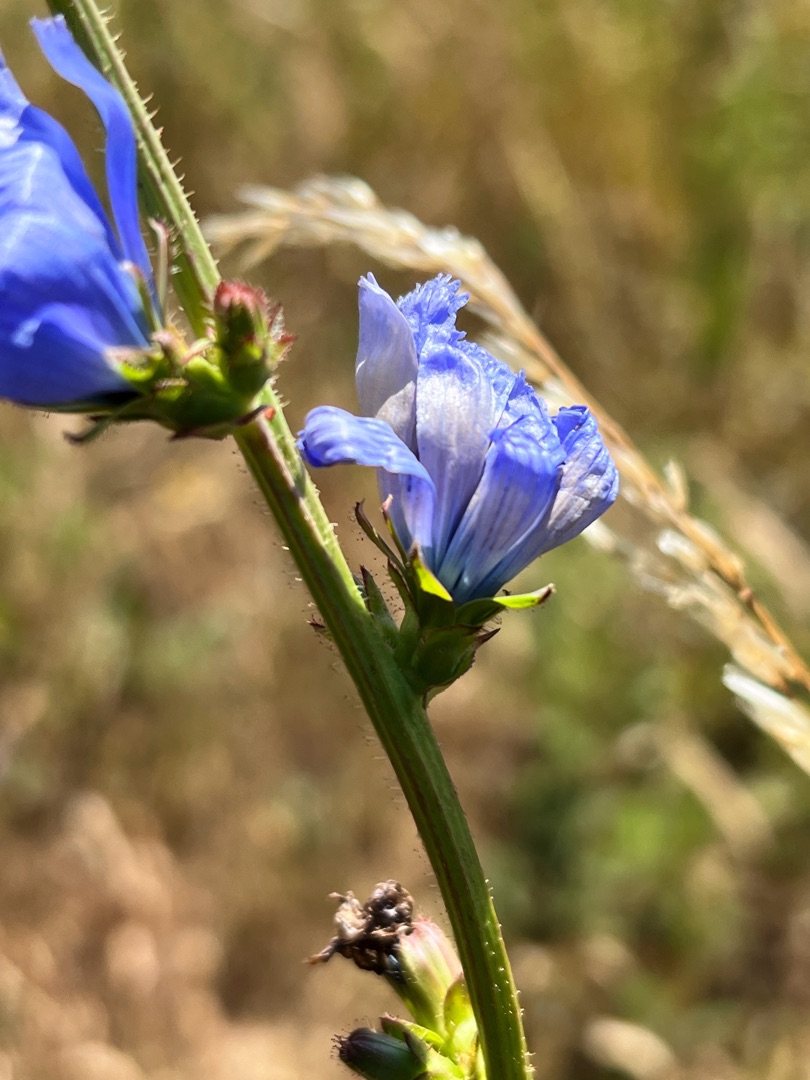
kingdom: Plantae
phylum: Tracheophyta
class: Magnoliopsida
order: Asterales
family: Asteraceae
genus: Cichorium
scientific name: Cichorium intybus
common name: Cikorie
